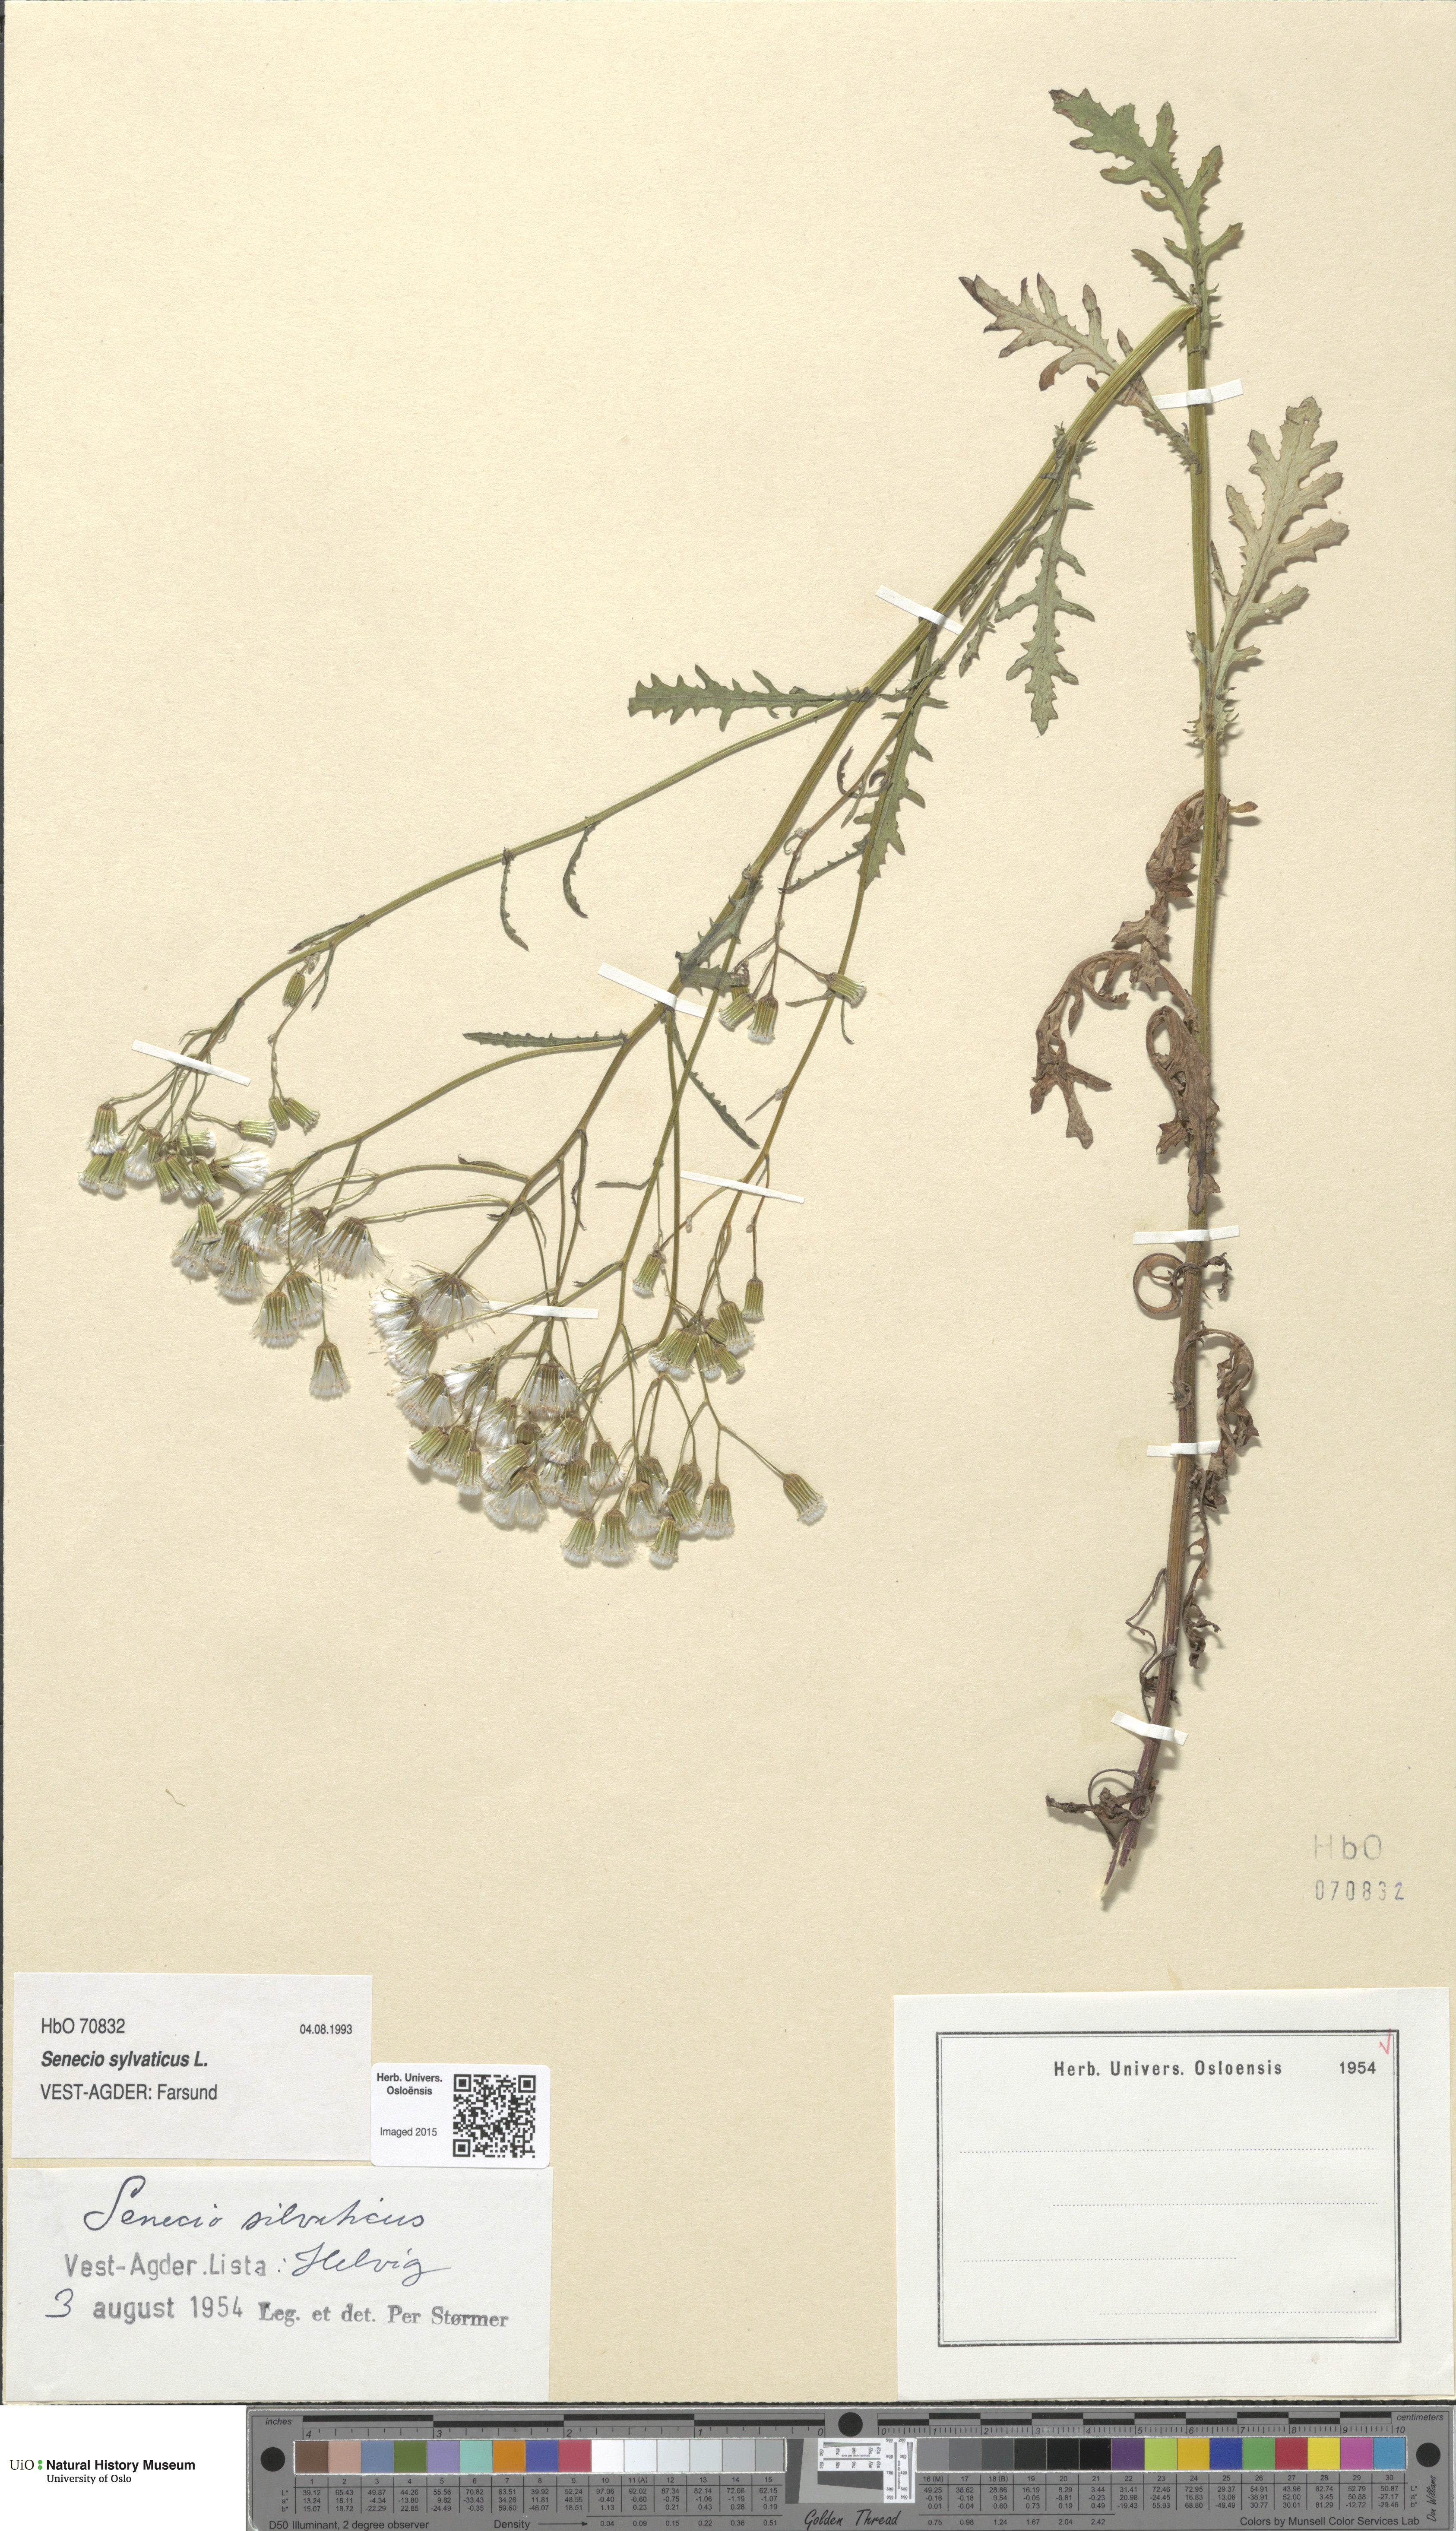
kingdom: Plantae
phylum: Tracheophyta
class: Magnoliopsida
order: Asterales
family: Asteraceae
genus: Senecio
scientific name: Senecio sylvaticus
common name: Woodland ragwort
